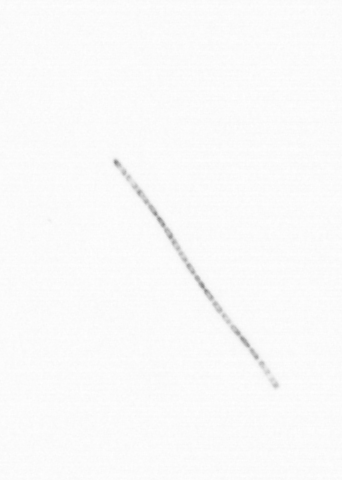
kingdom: Chromista
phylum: Ochrophyta
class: Bacillariophyceae
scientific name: Bacillariophyceae
